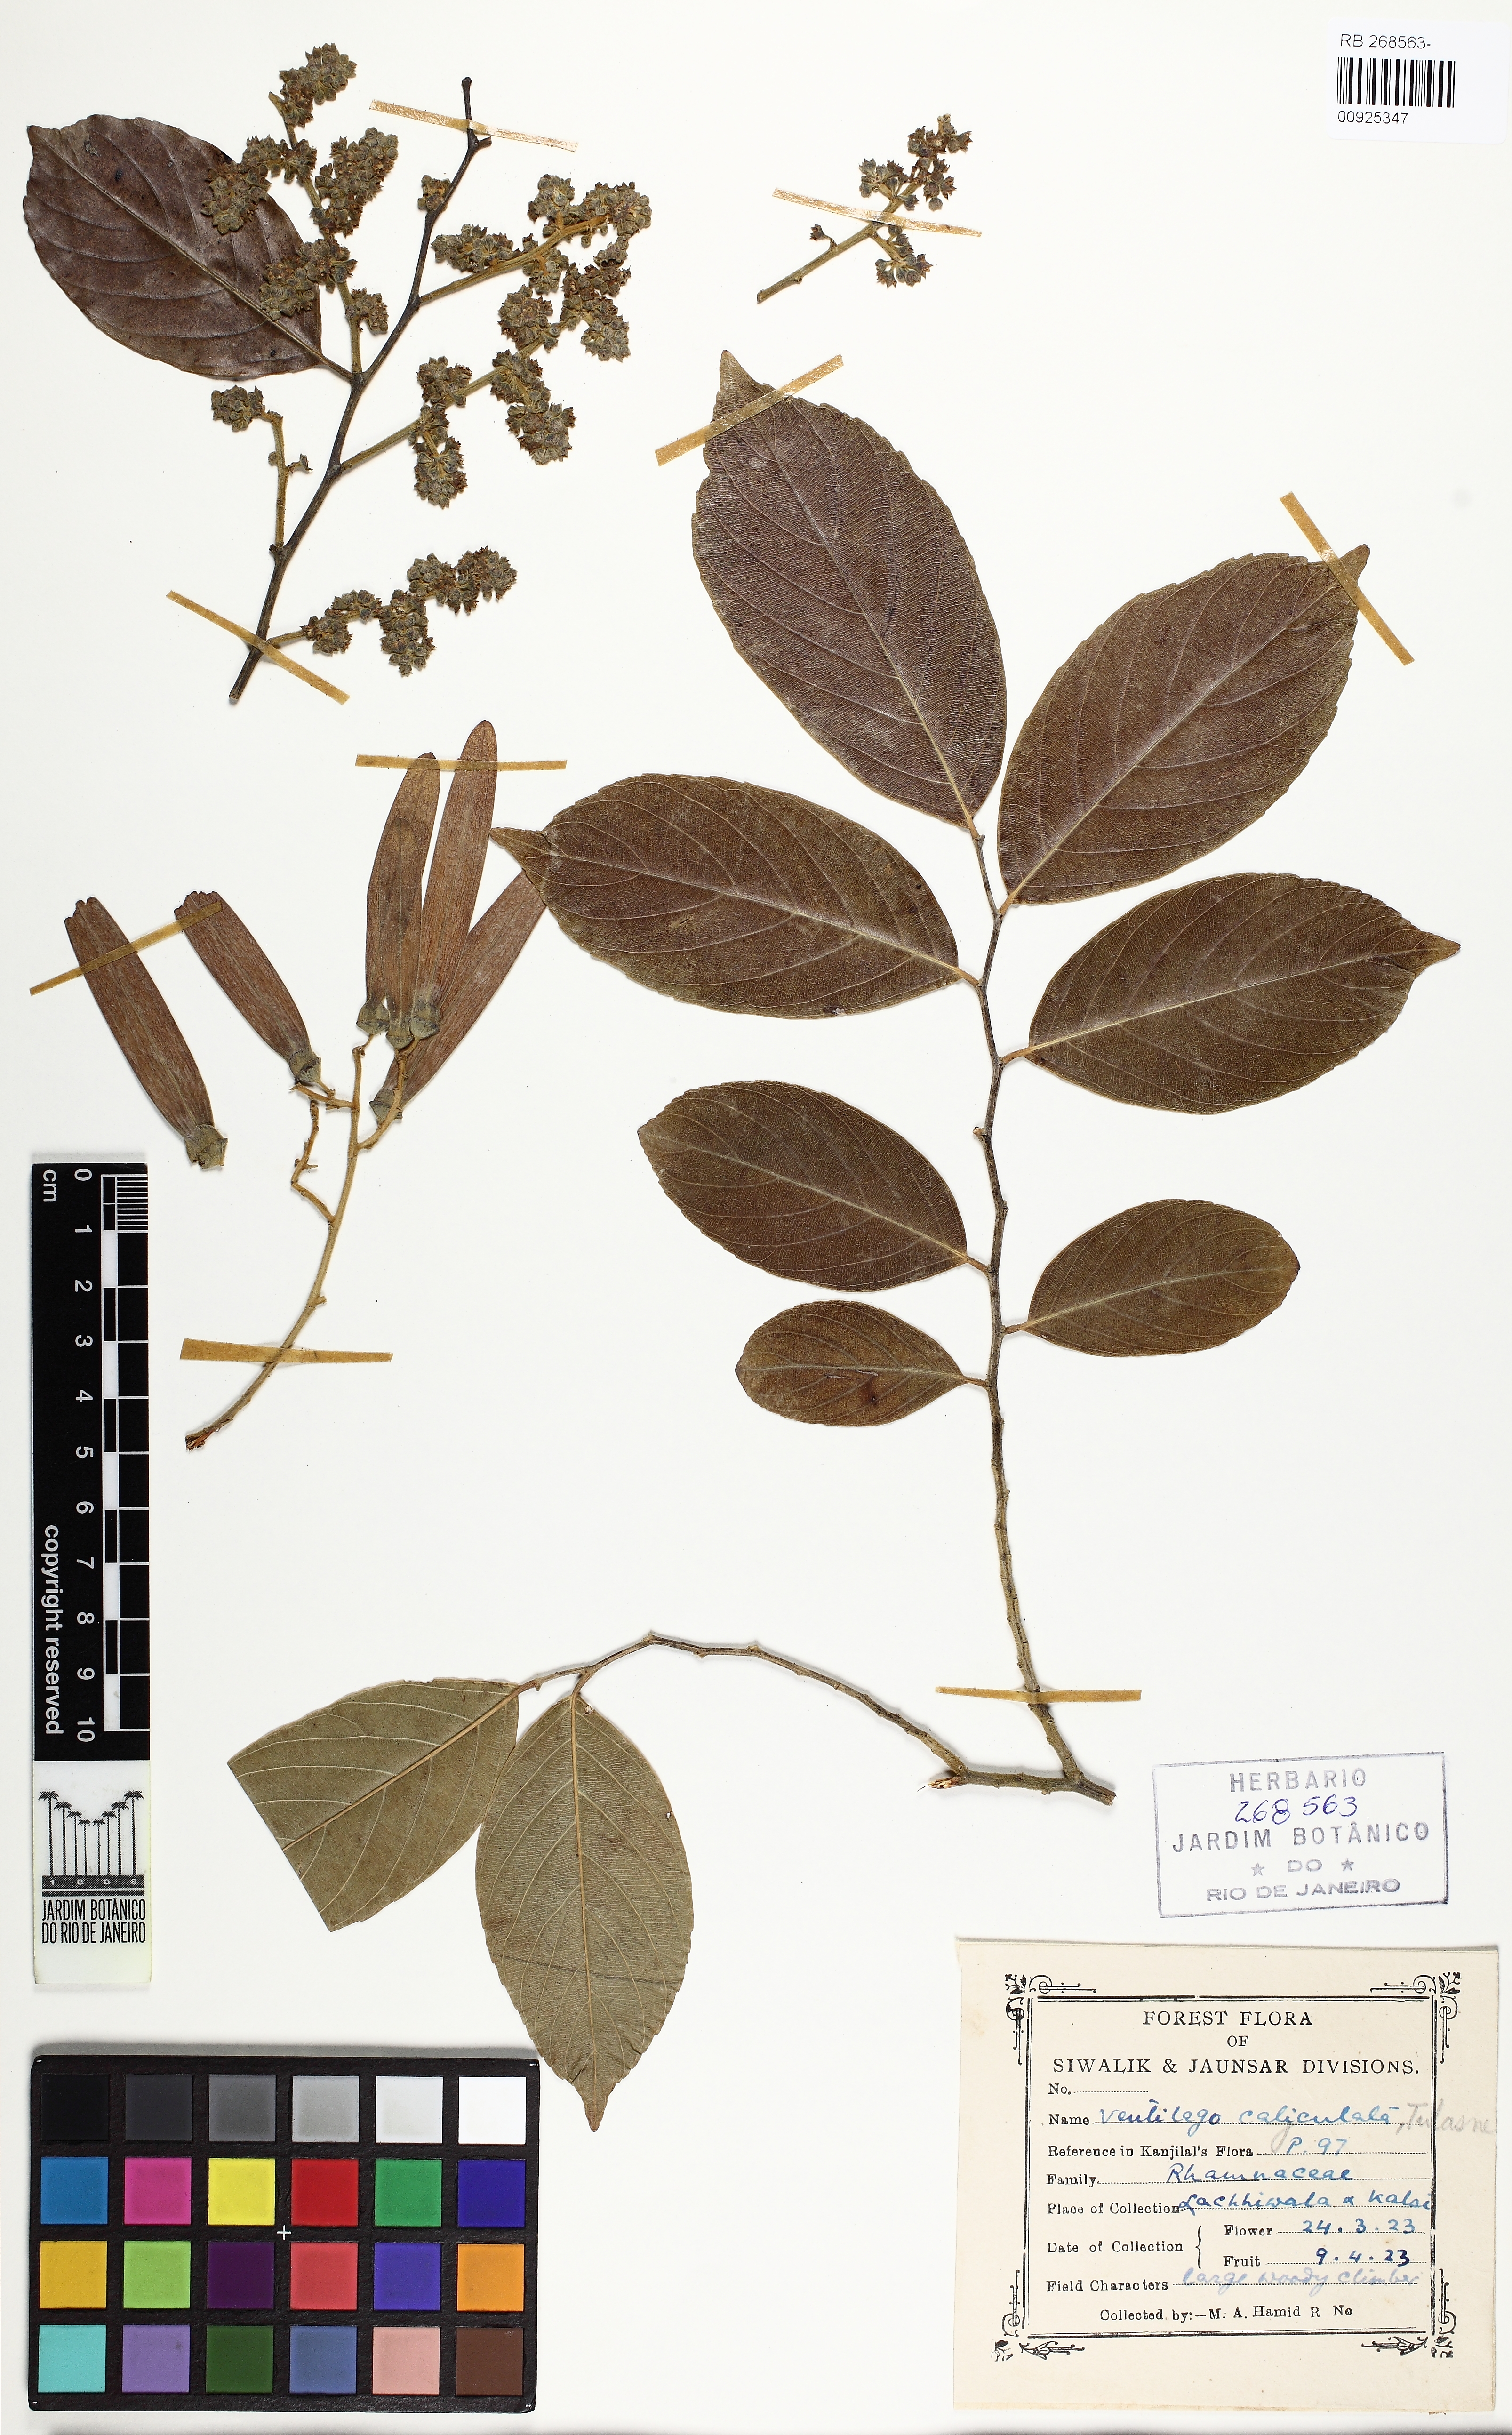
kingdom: Plantae
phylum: Tracheophyta
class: Magnoliopsida
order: Rosales
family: Rhamnaceae
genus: Ventilago
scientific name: Ventilago denticulata
